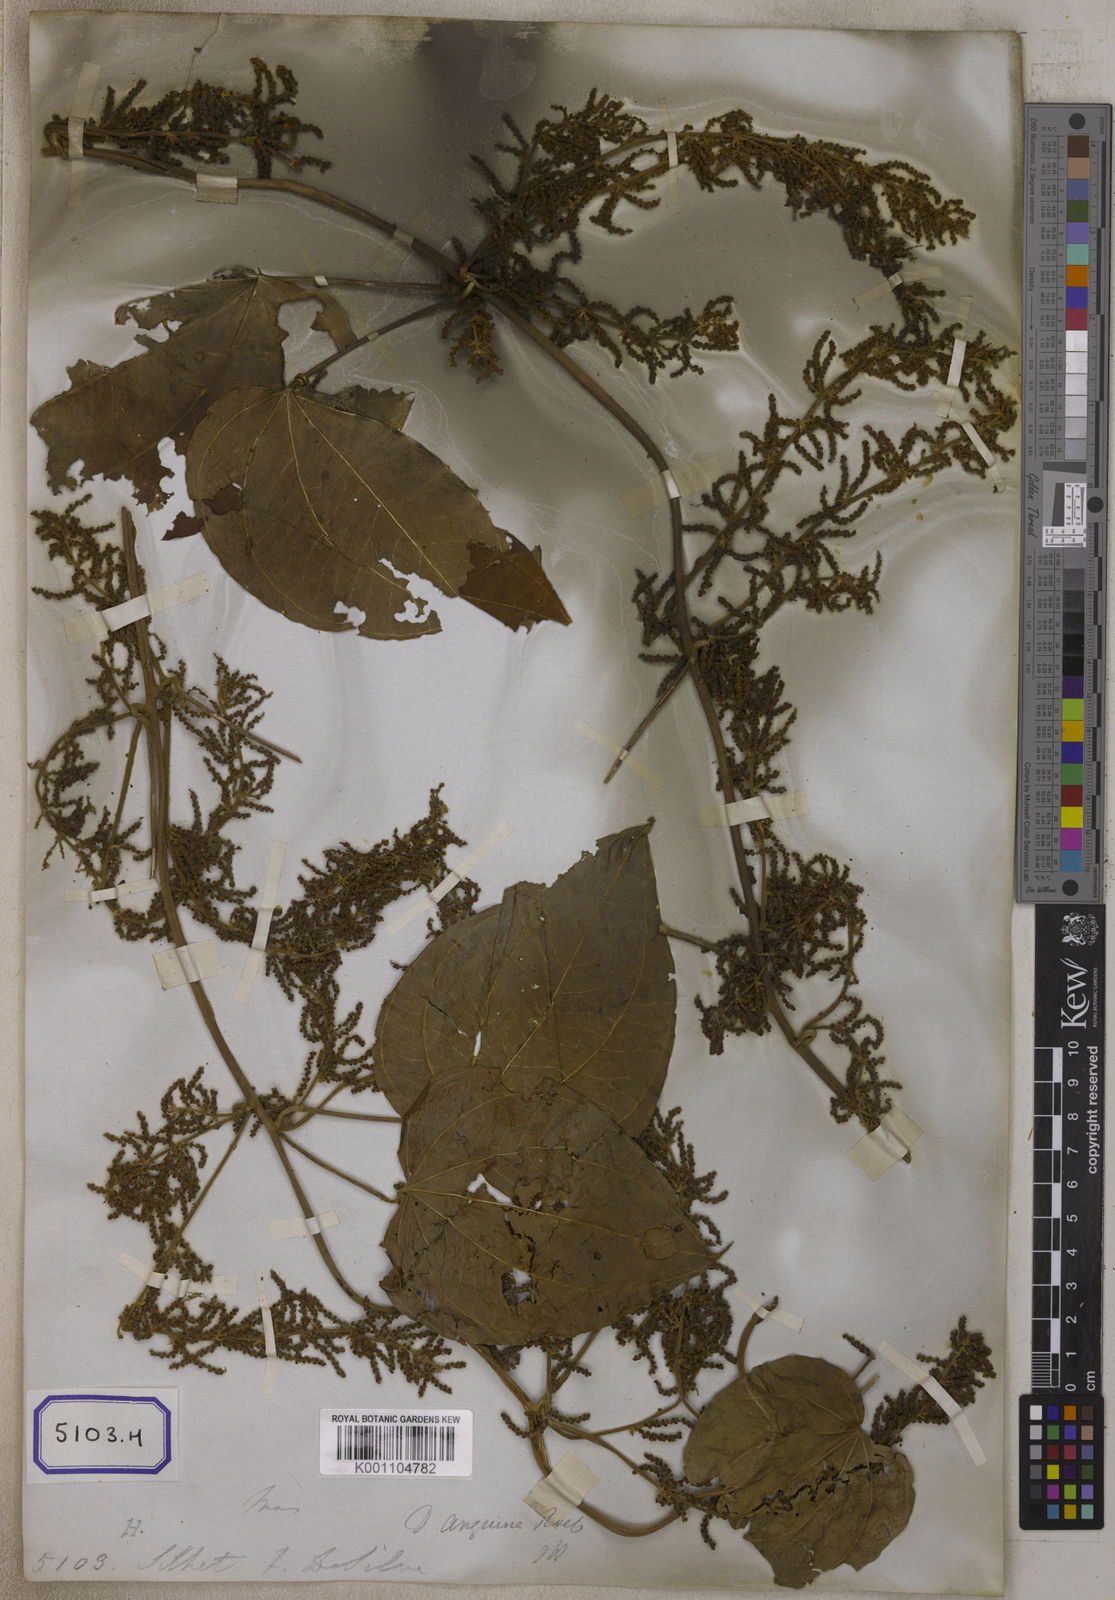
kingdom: Plantae
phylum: Tracheophyta
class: Liliopsida
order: Dioscoreales
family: Dioscoreaceae
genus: Dioscorea
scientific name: Dioscorea
